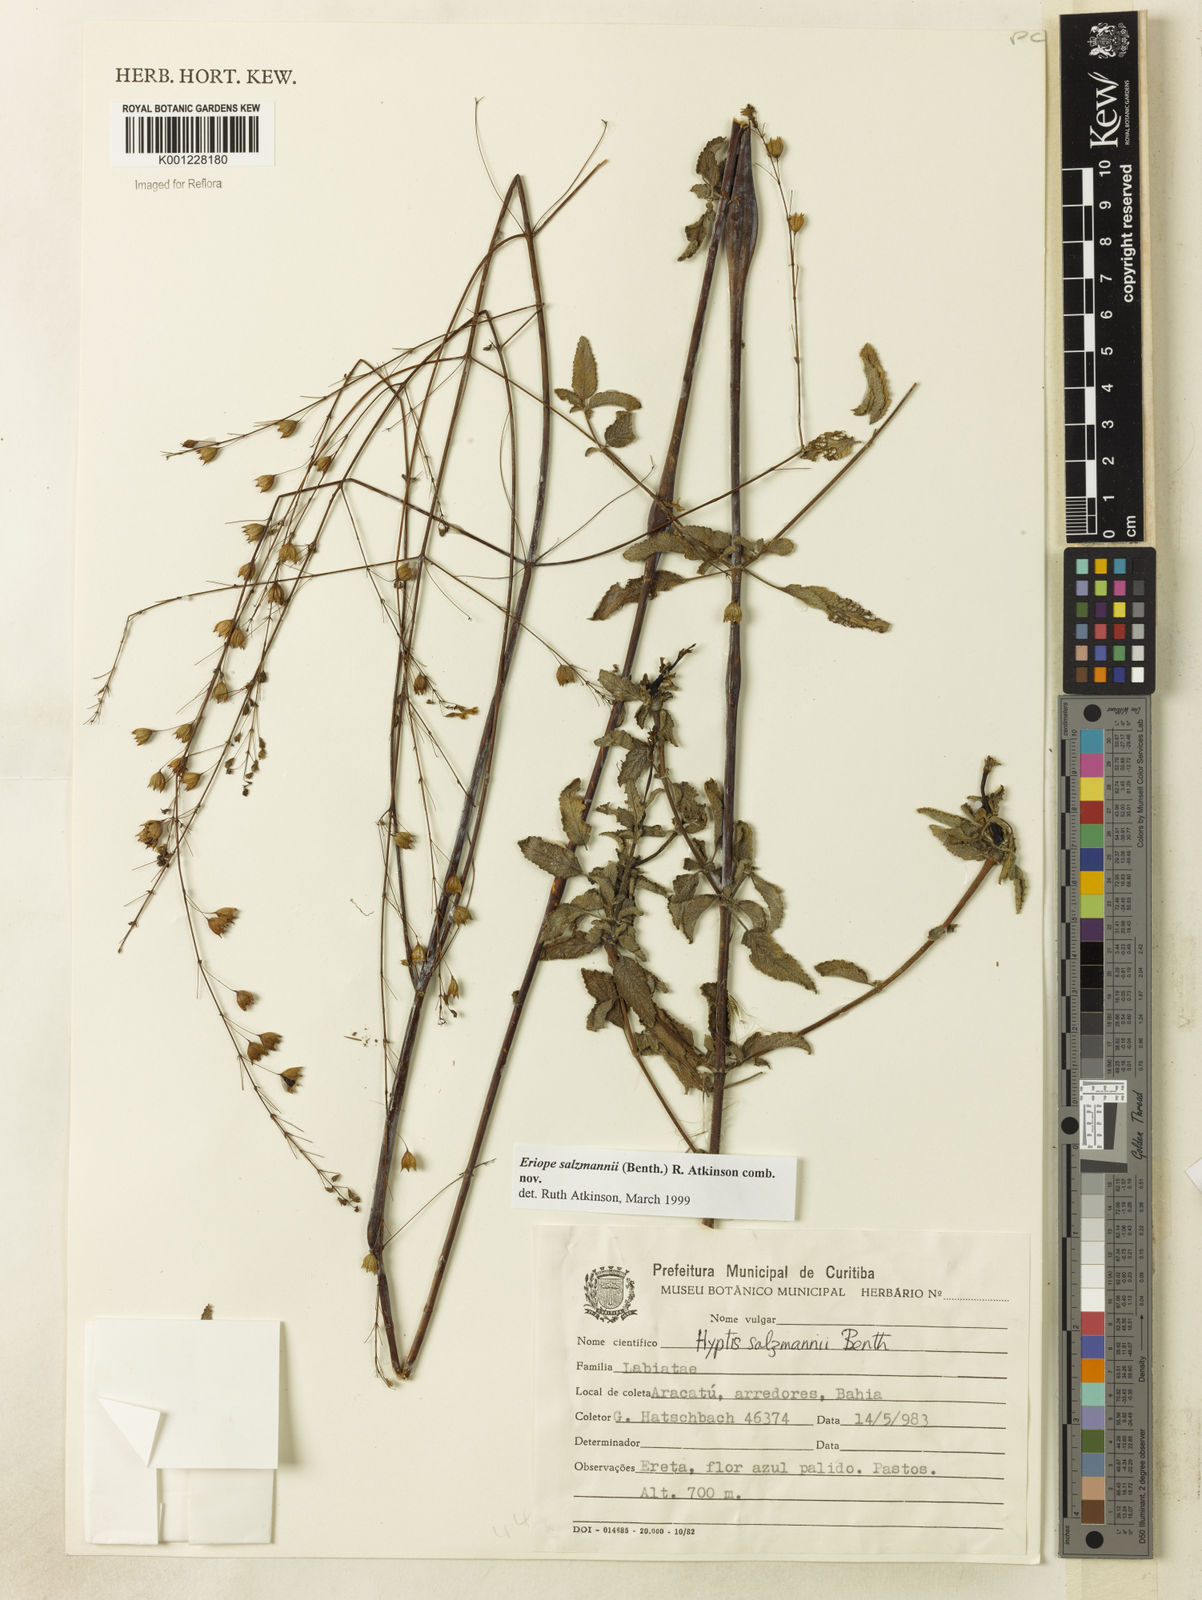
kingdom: Plantae
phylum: Tracheophyta
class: Magnoliopsida
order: Lamiales
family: Lamiaceae
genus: Hypenia
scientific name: Hypenia salzmannii
